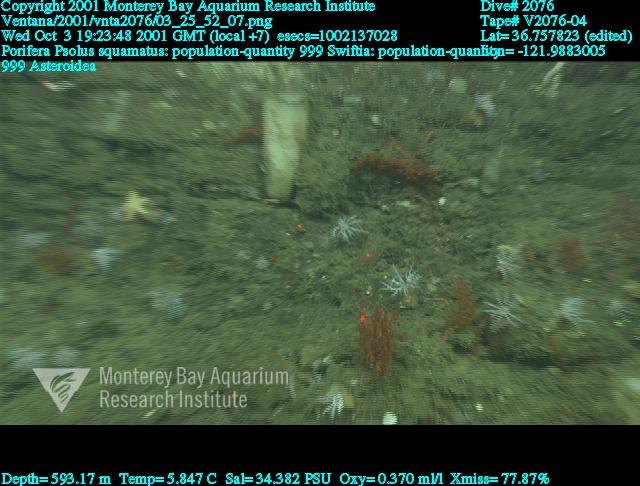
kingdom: Animalia
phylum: Porifera
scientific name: Porifera
